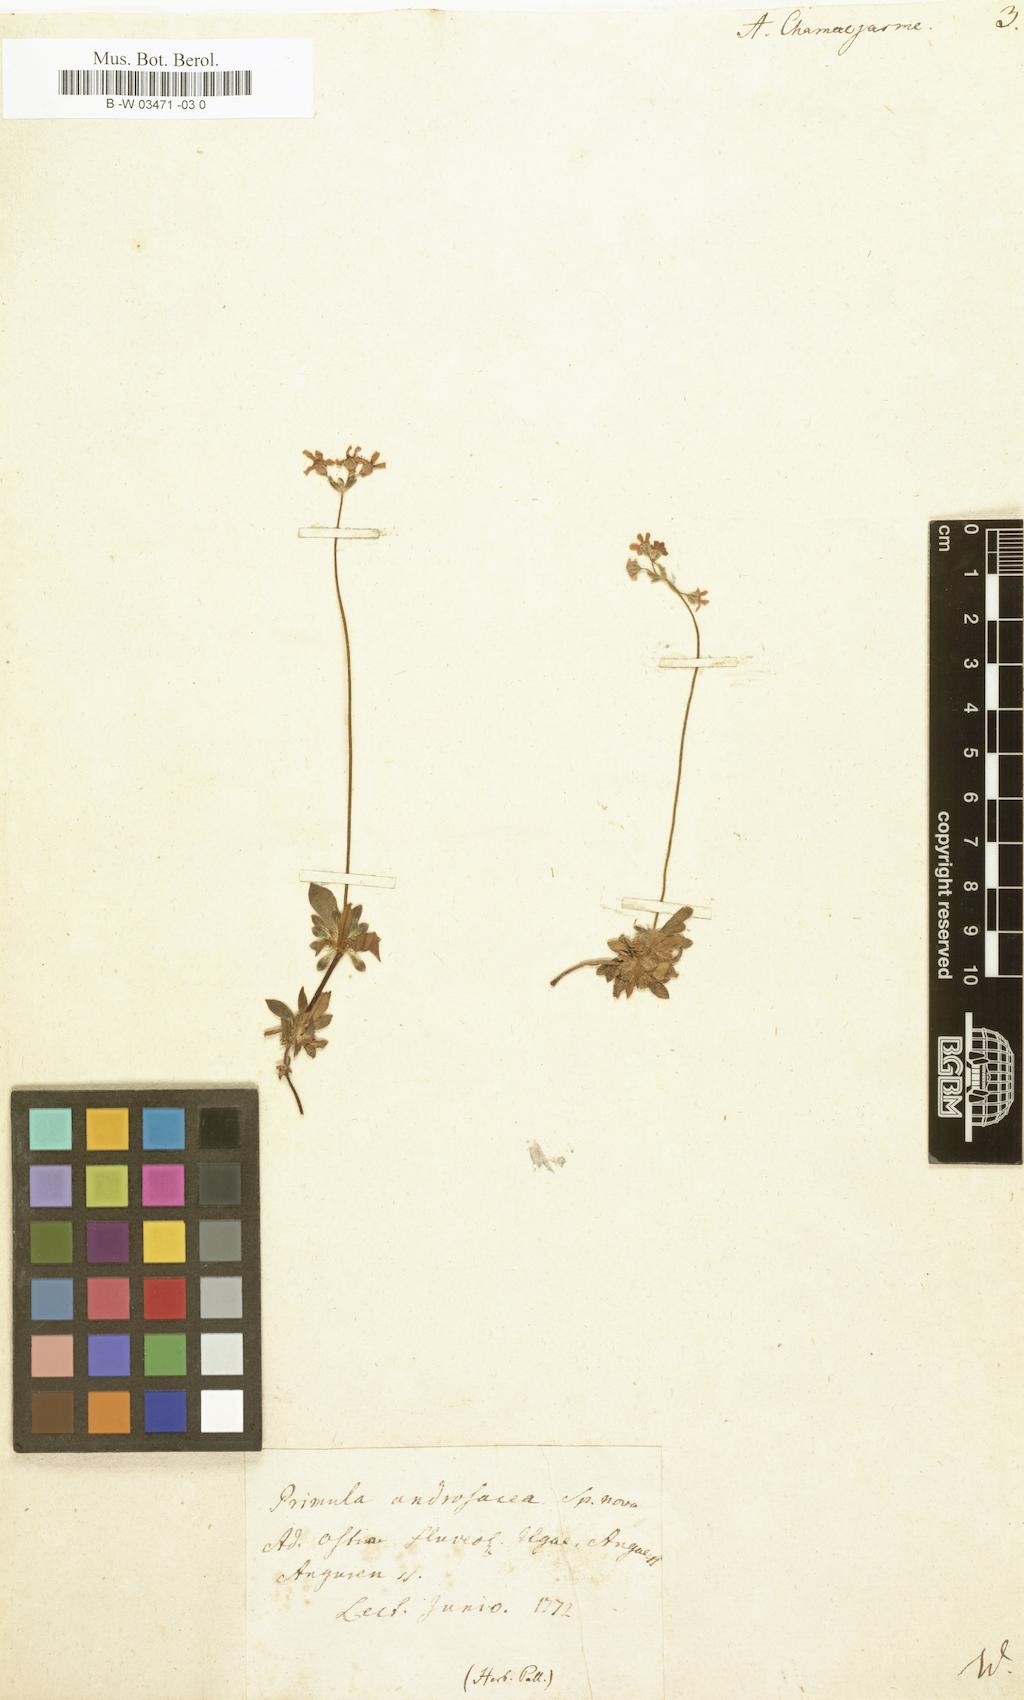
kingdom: Plantae
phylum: Tracheophyta
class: Magnoliopsida
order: Ericales
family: Primulaceae
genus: Androsace
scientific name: Androsace chamaejasme
